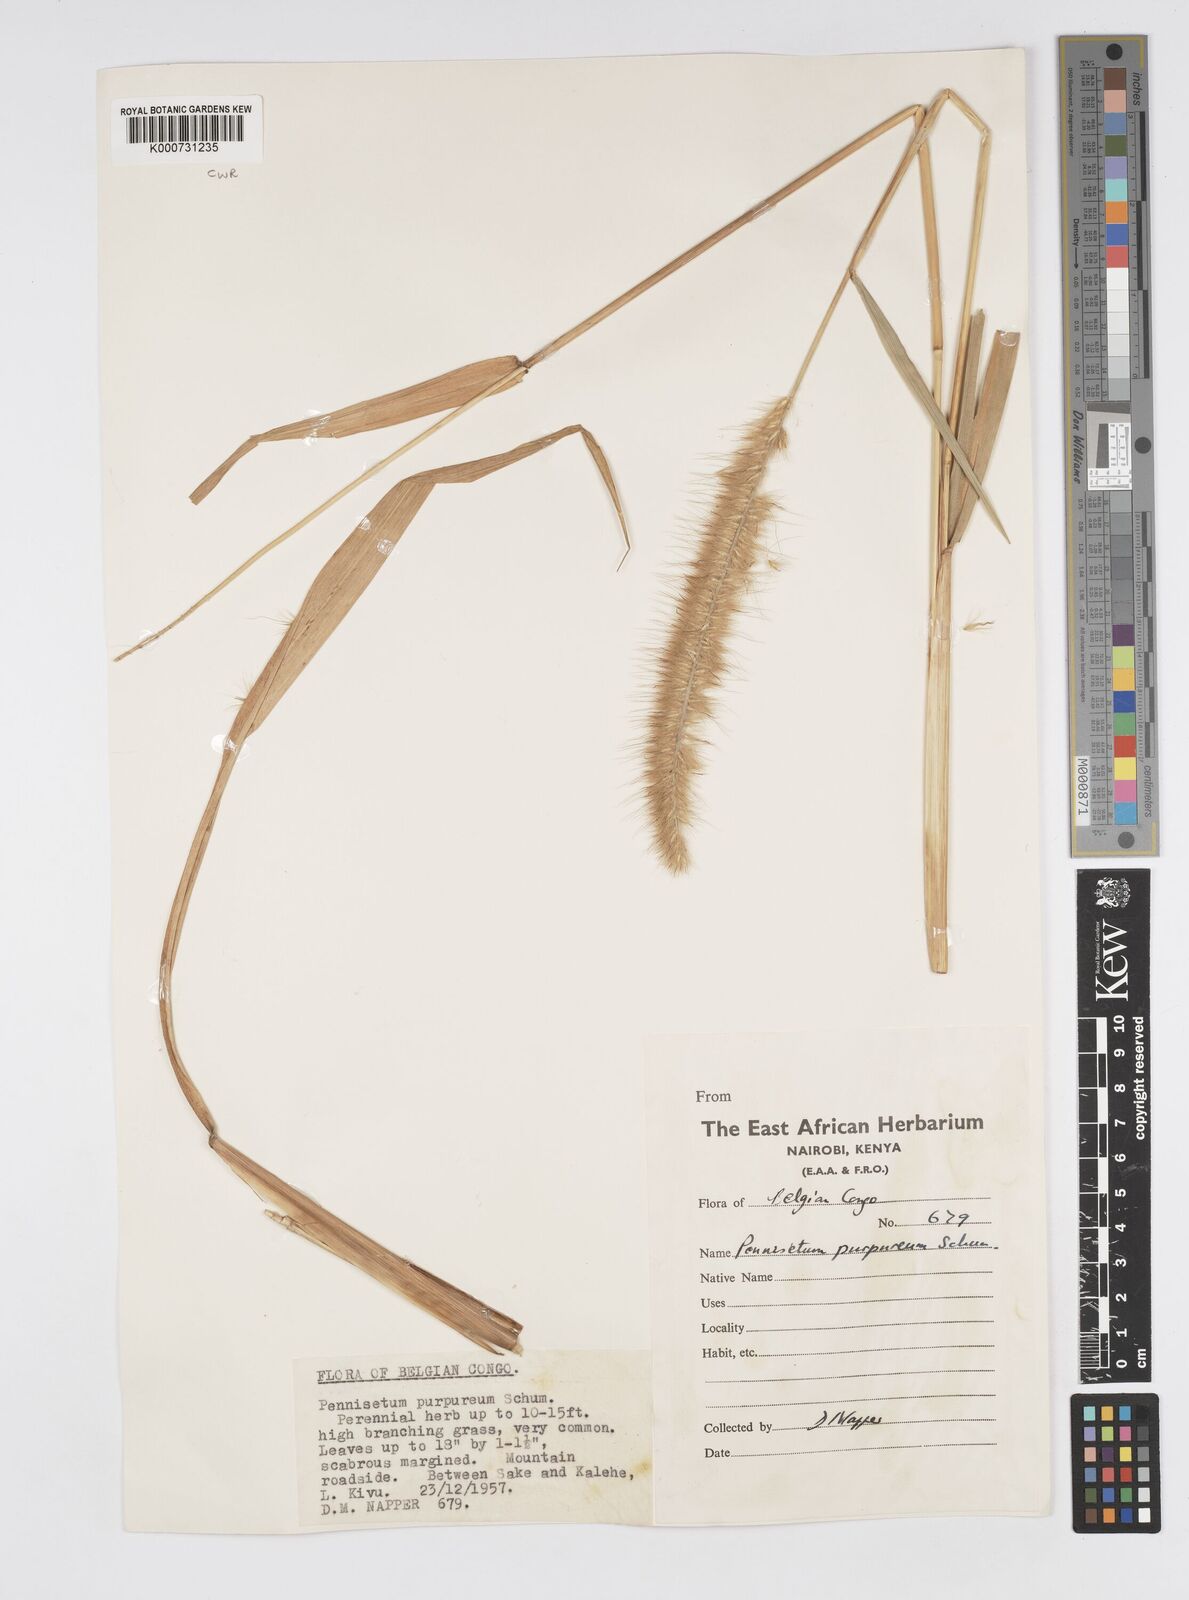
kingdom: Plantae
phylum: Tracheophyta
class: Liliopsida
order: Poales
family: Poaceae
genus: Cenchrus
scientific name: Cenchrus purpureus
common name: Elephant grass
